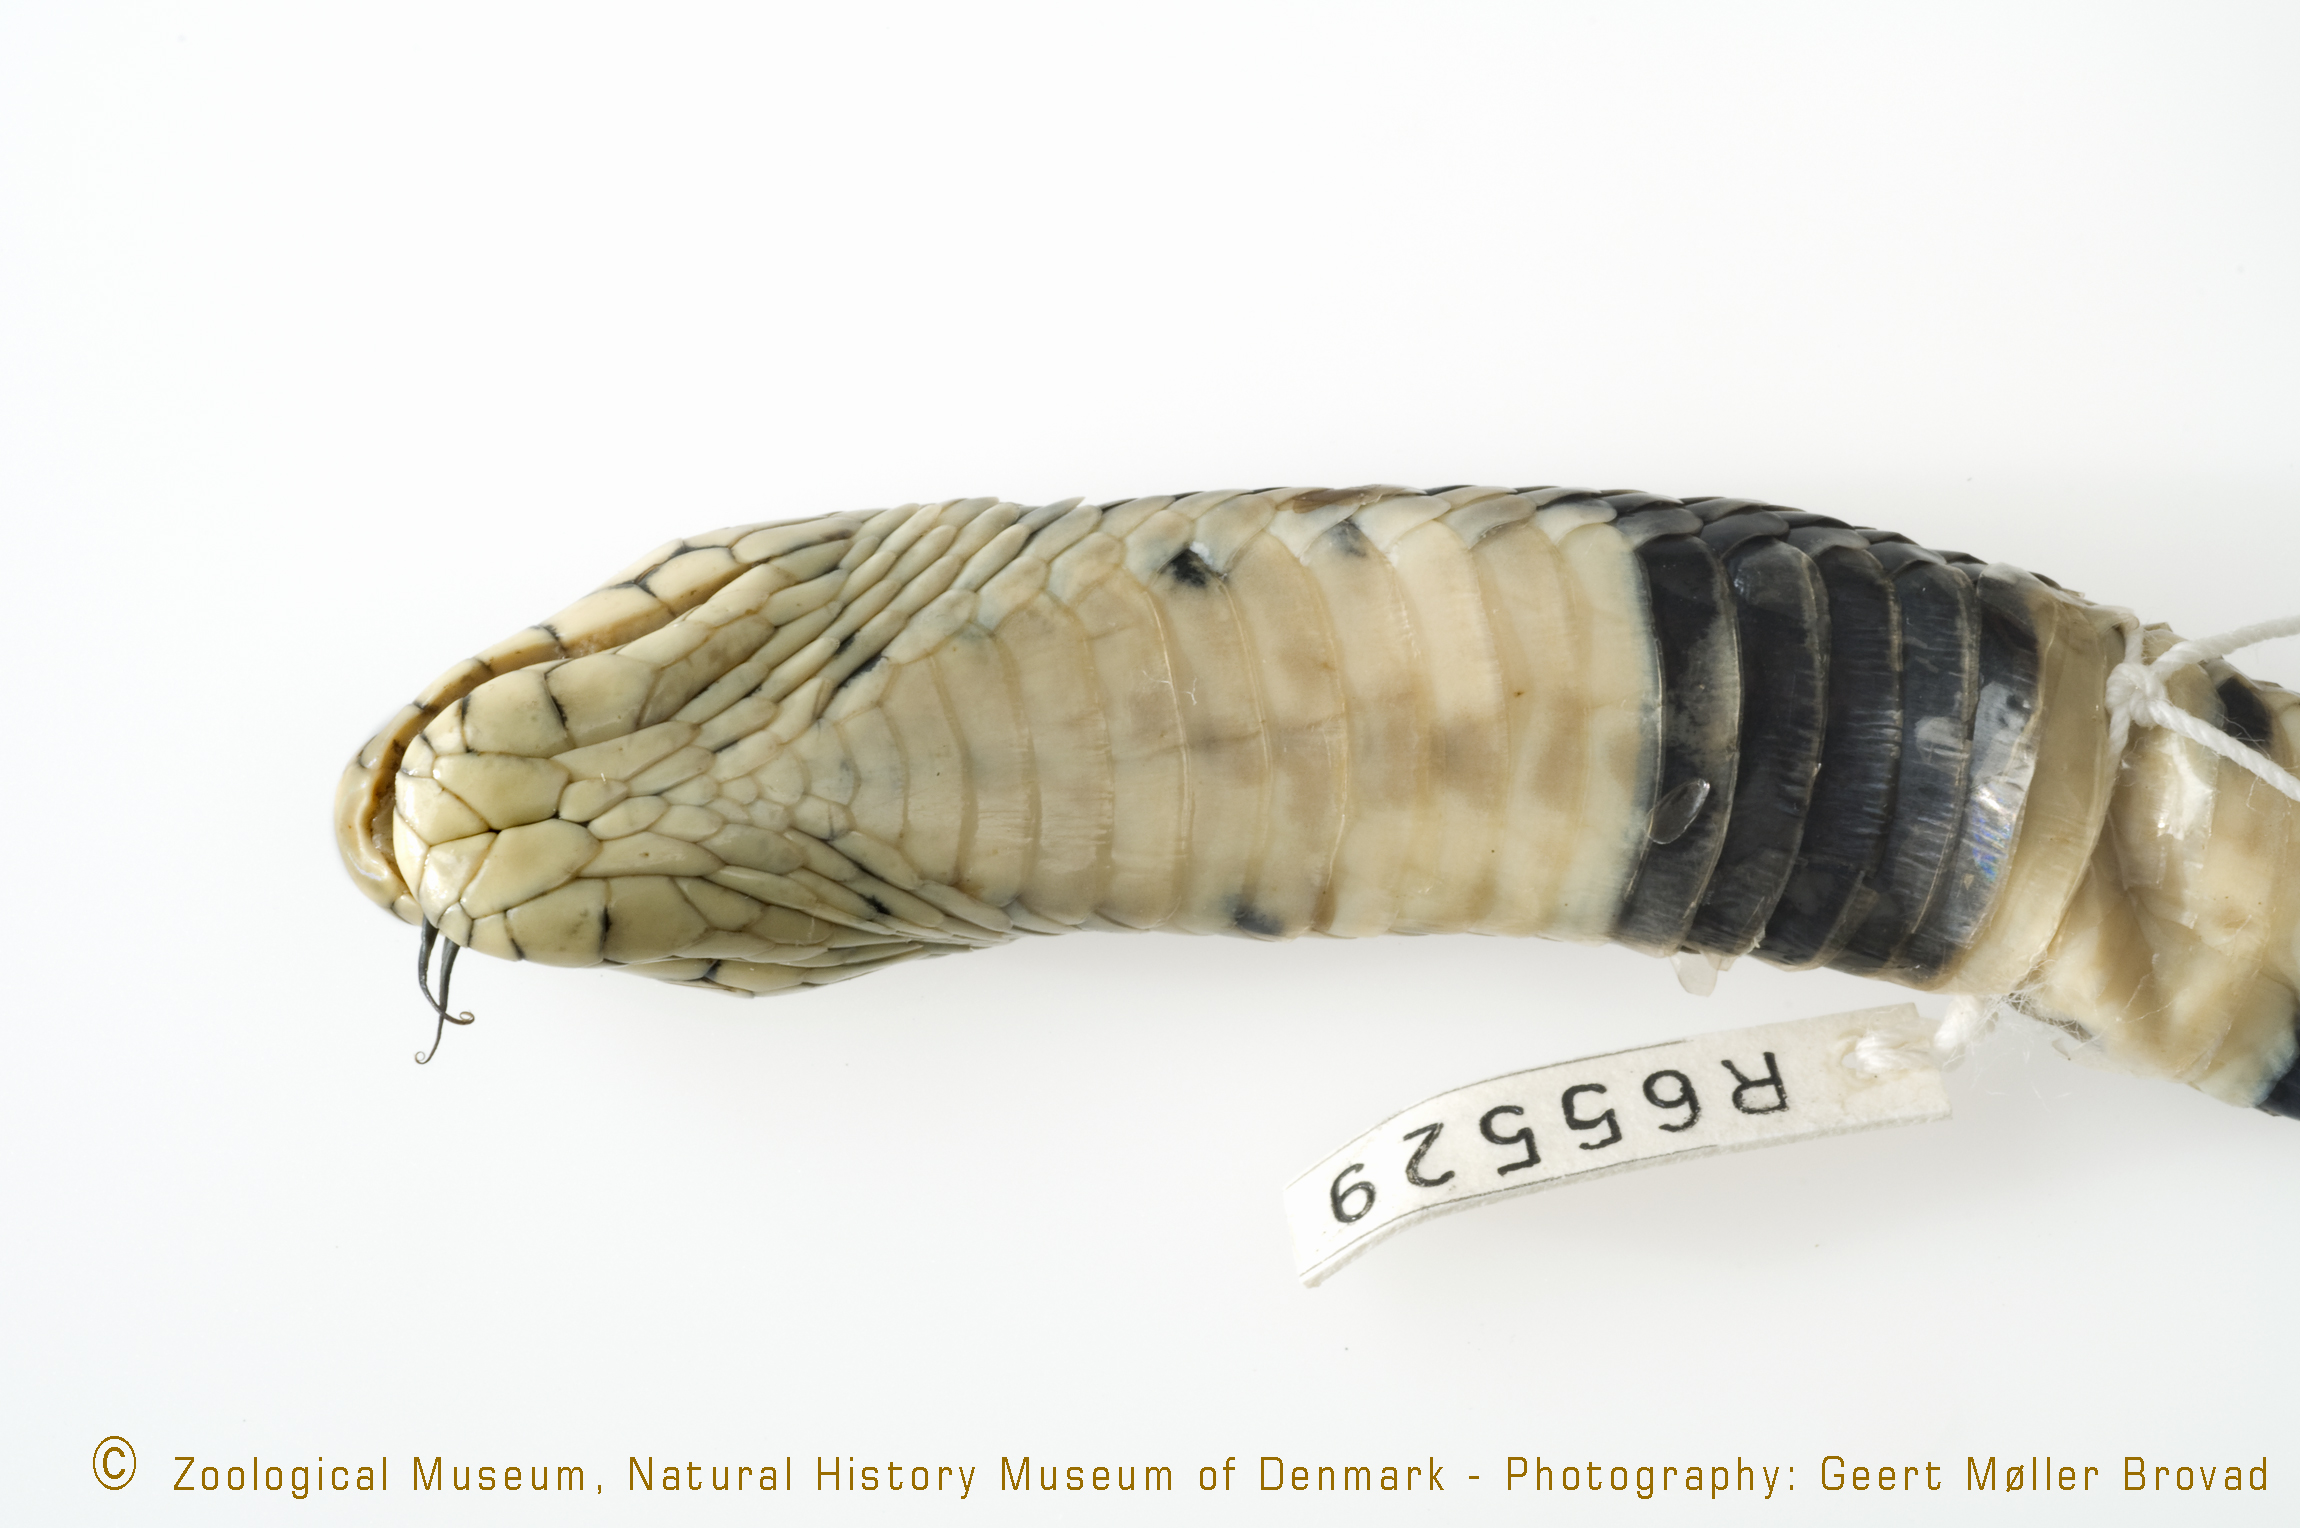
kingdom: Animalia
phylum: Chordata
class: Squamata
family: Elapidae
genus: Naja
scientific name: Naja mossambica
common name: Mozambique spitting cobra
